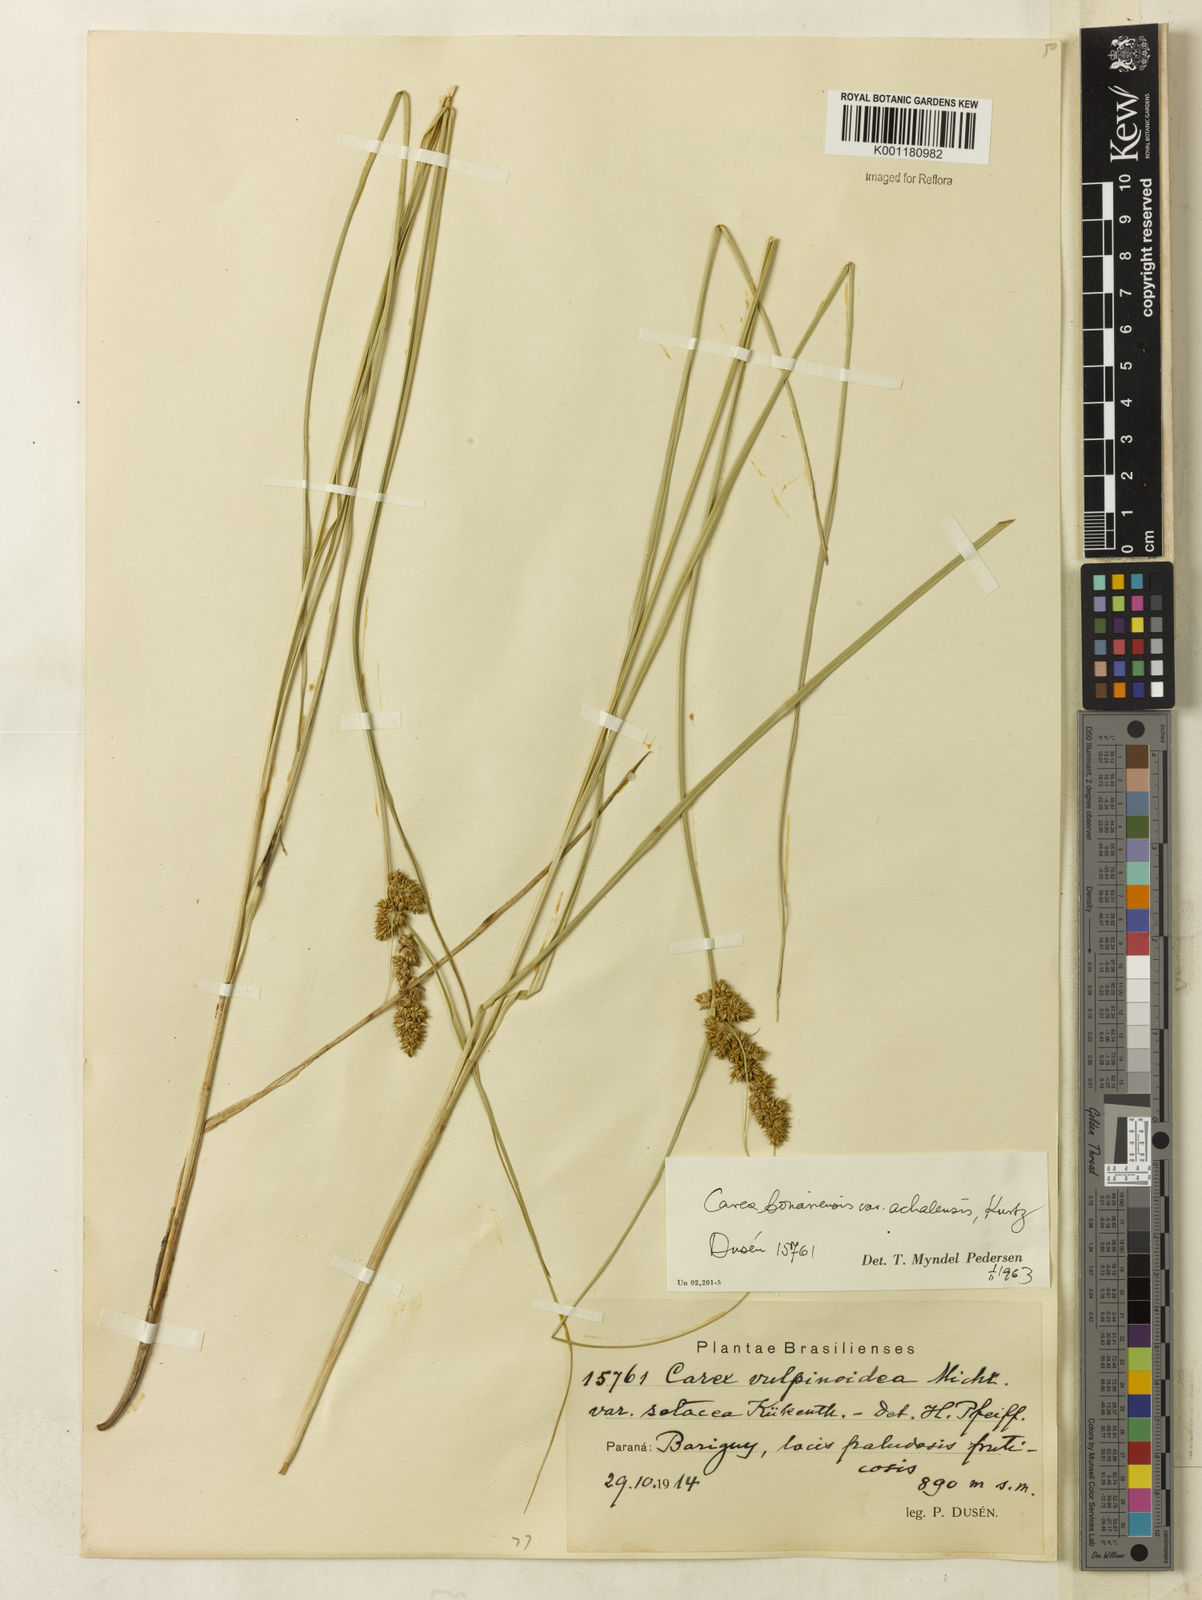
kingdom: Plantae
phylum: Tracheophyta
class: Liliopsida
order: Poales
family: Cyperaceae
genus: Carex
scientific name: Carex bonariensis
